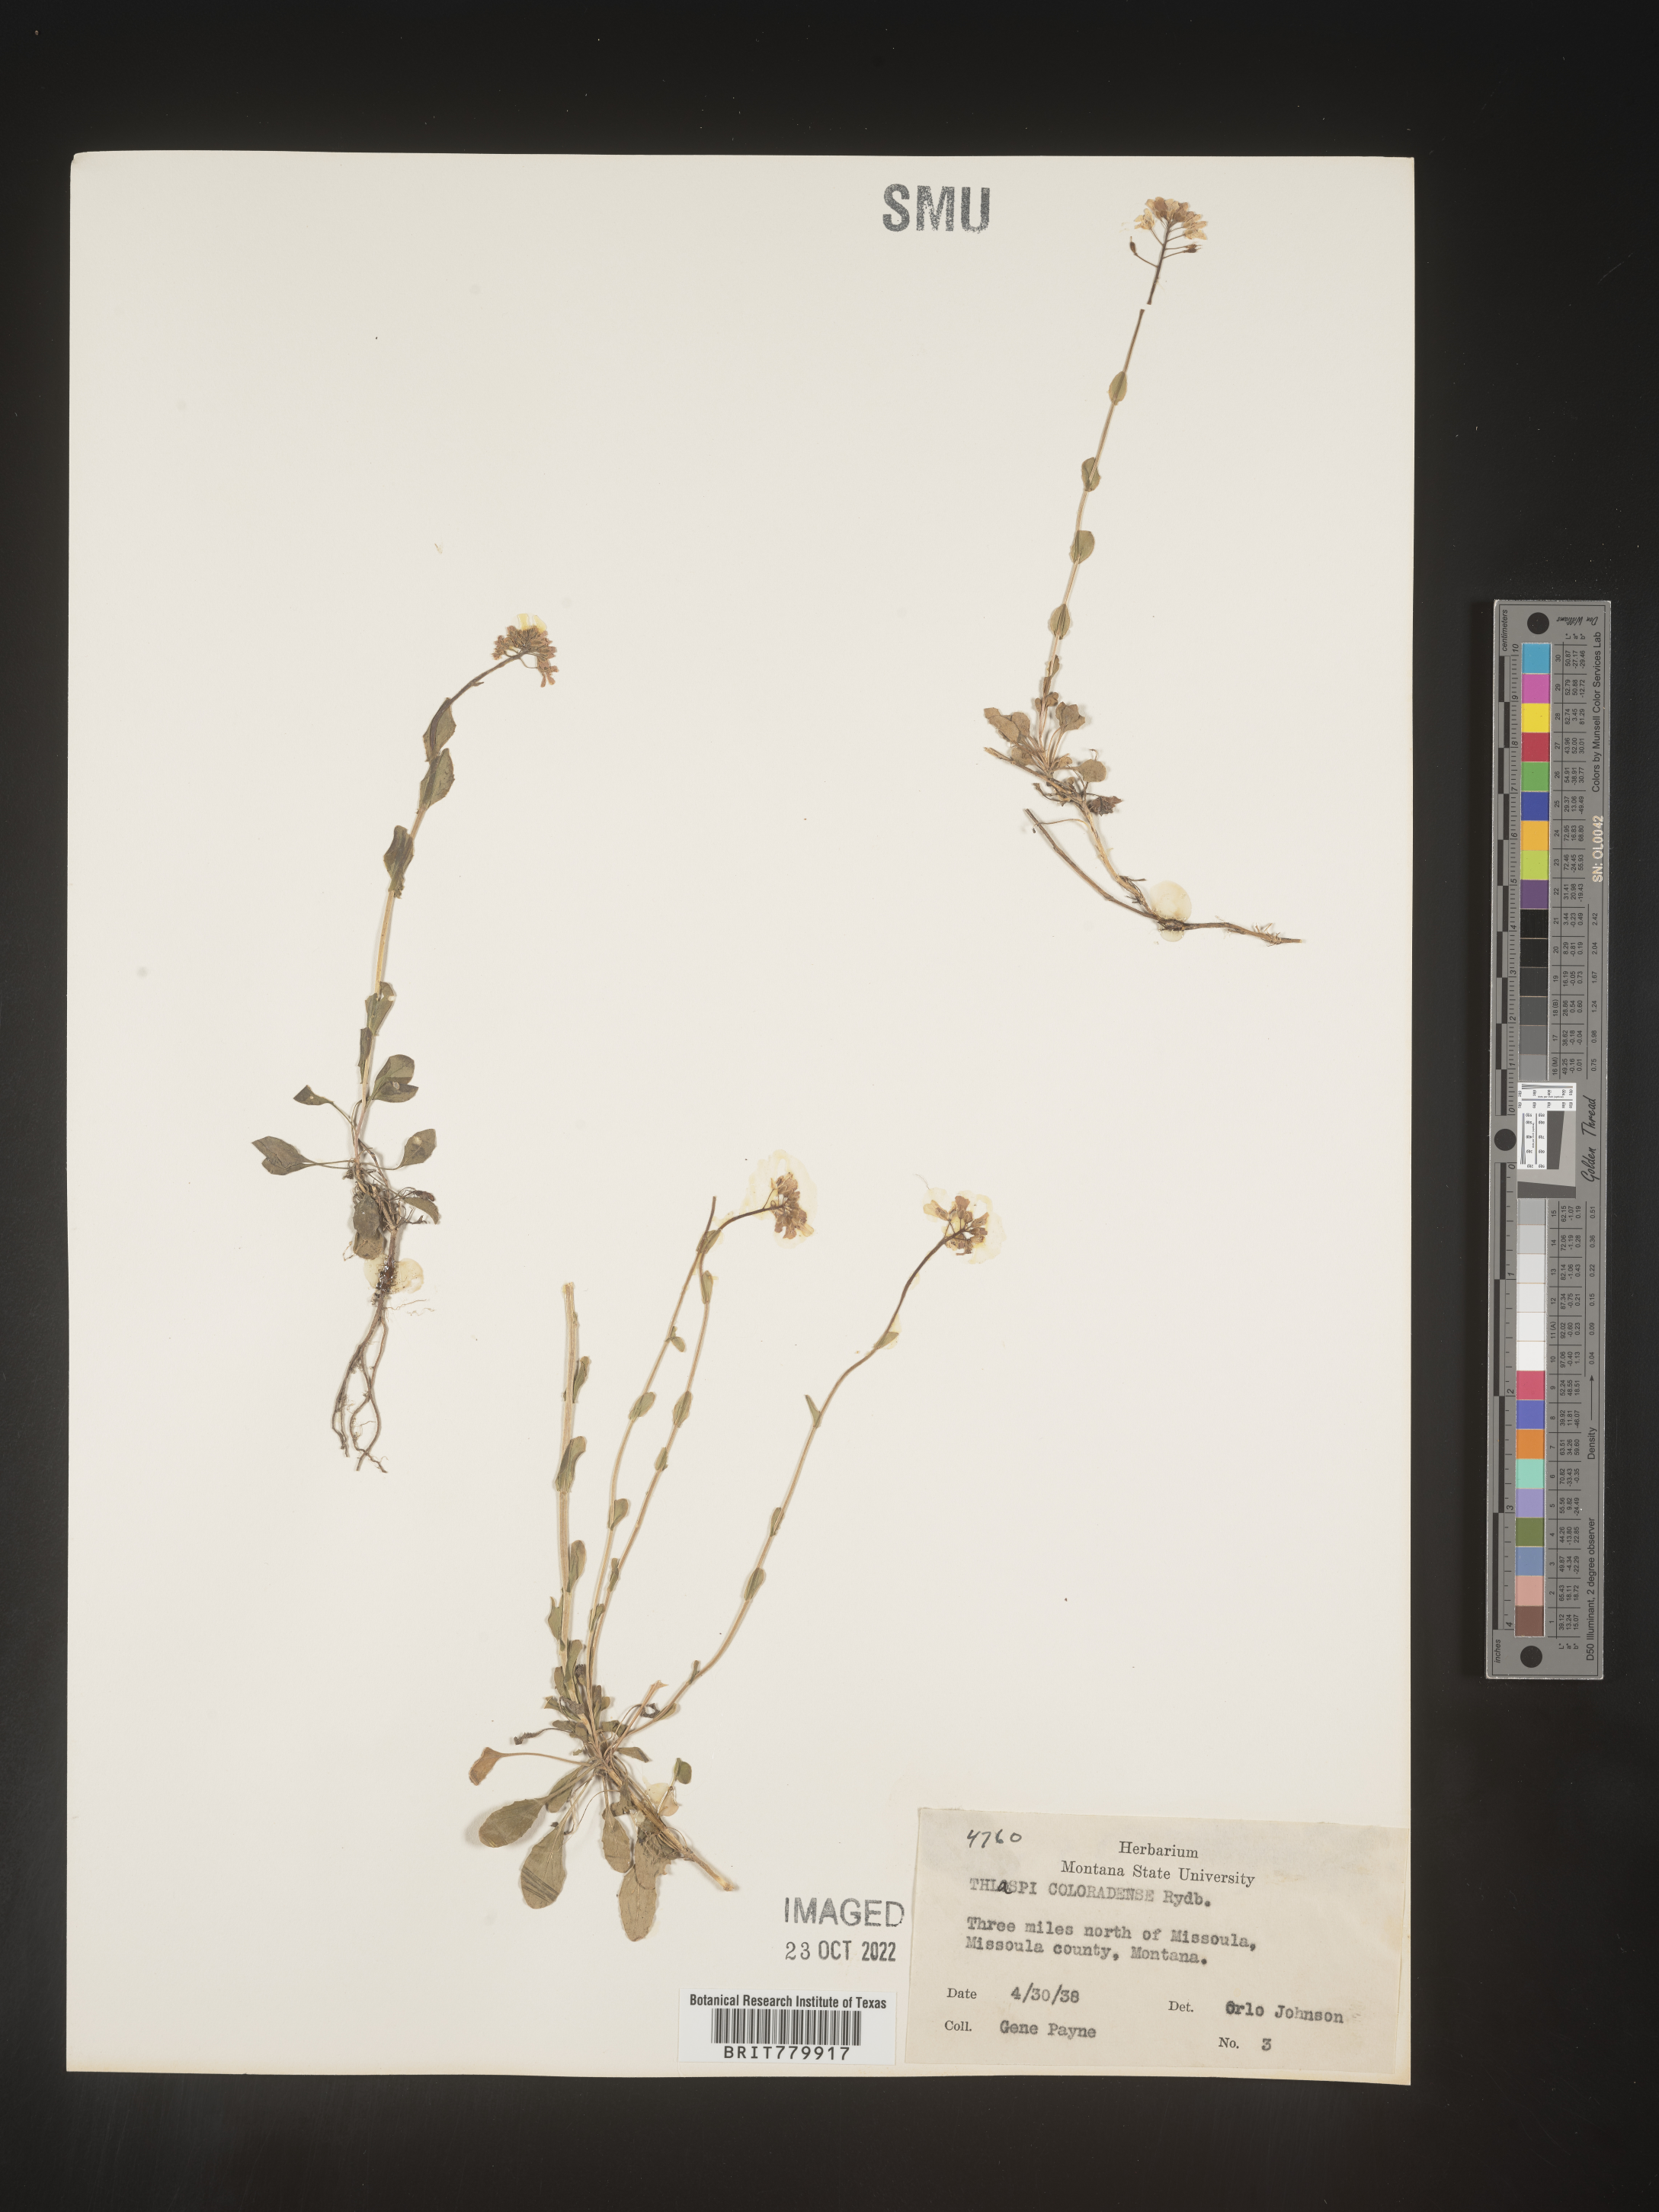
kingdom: Plantae
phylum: Tracheophyta
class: Magnoliopsida
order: Brassicales
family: Brassicaceae
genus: Thlaspi
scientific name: Thlaspi
